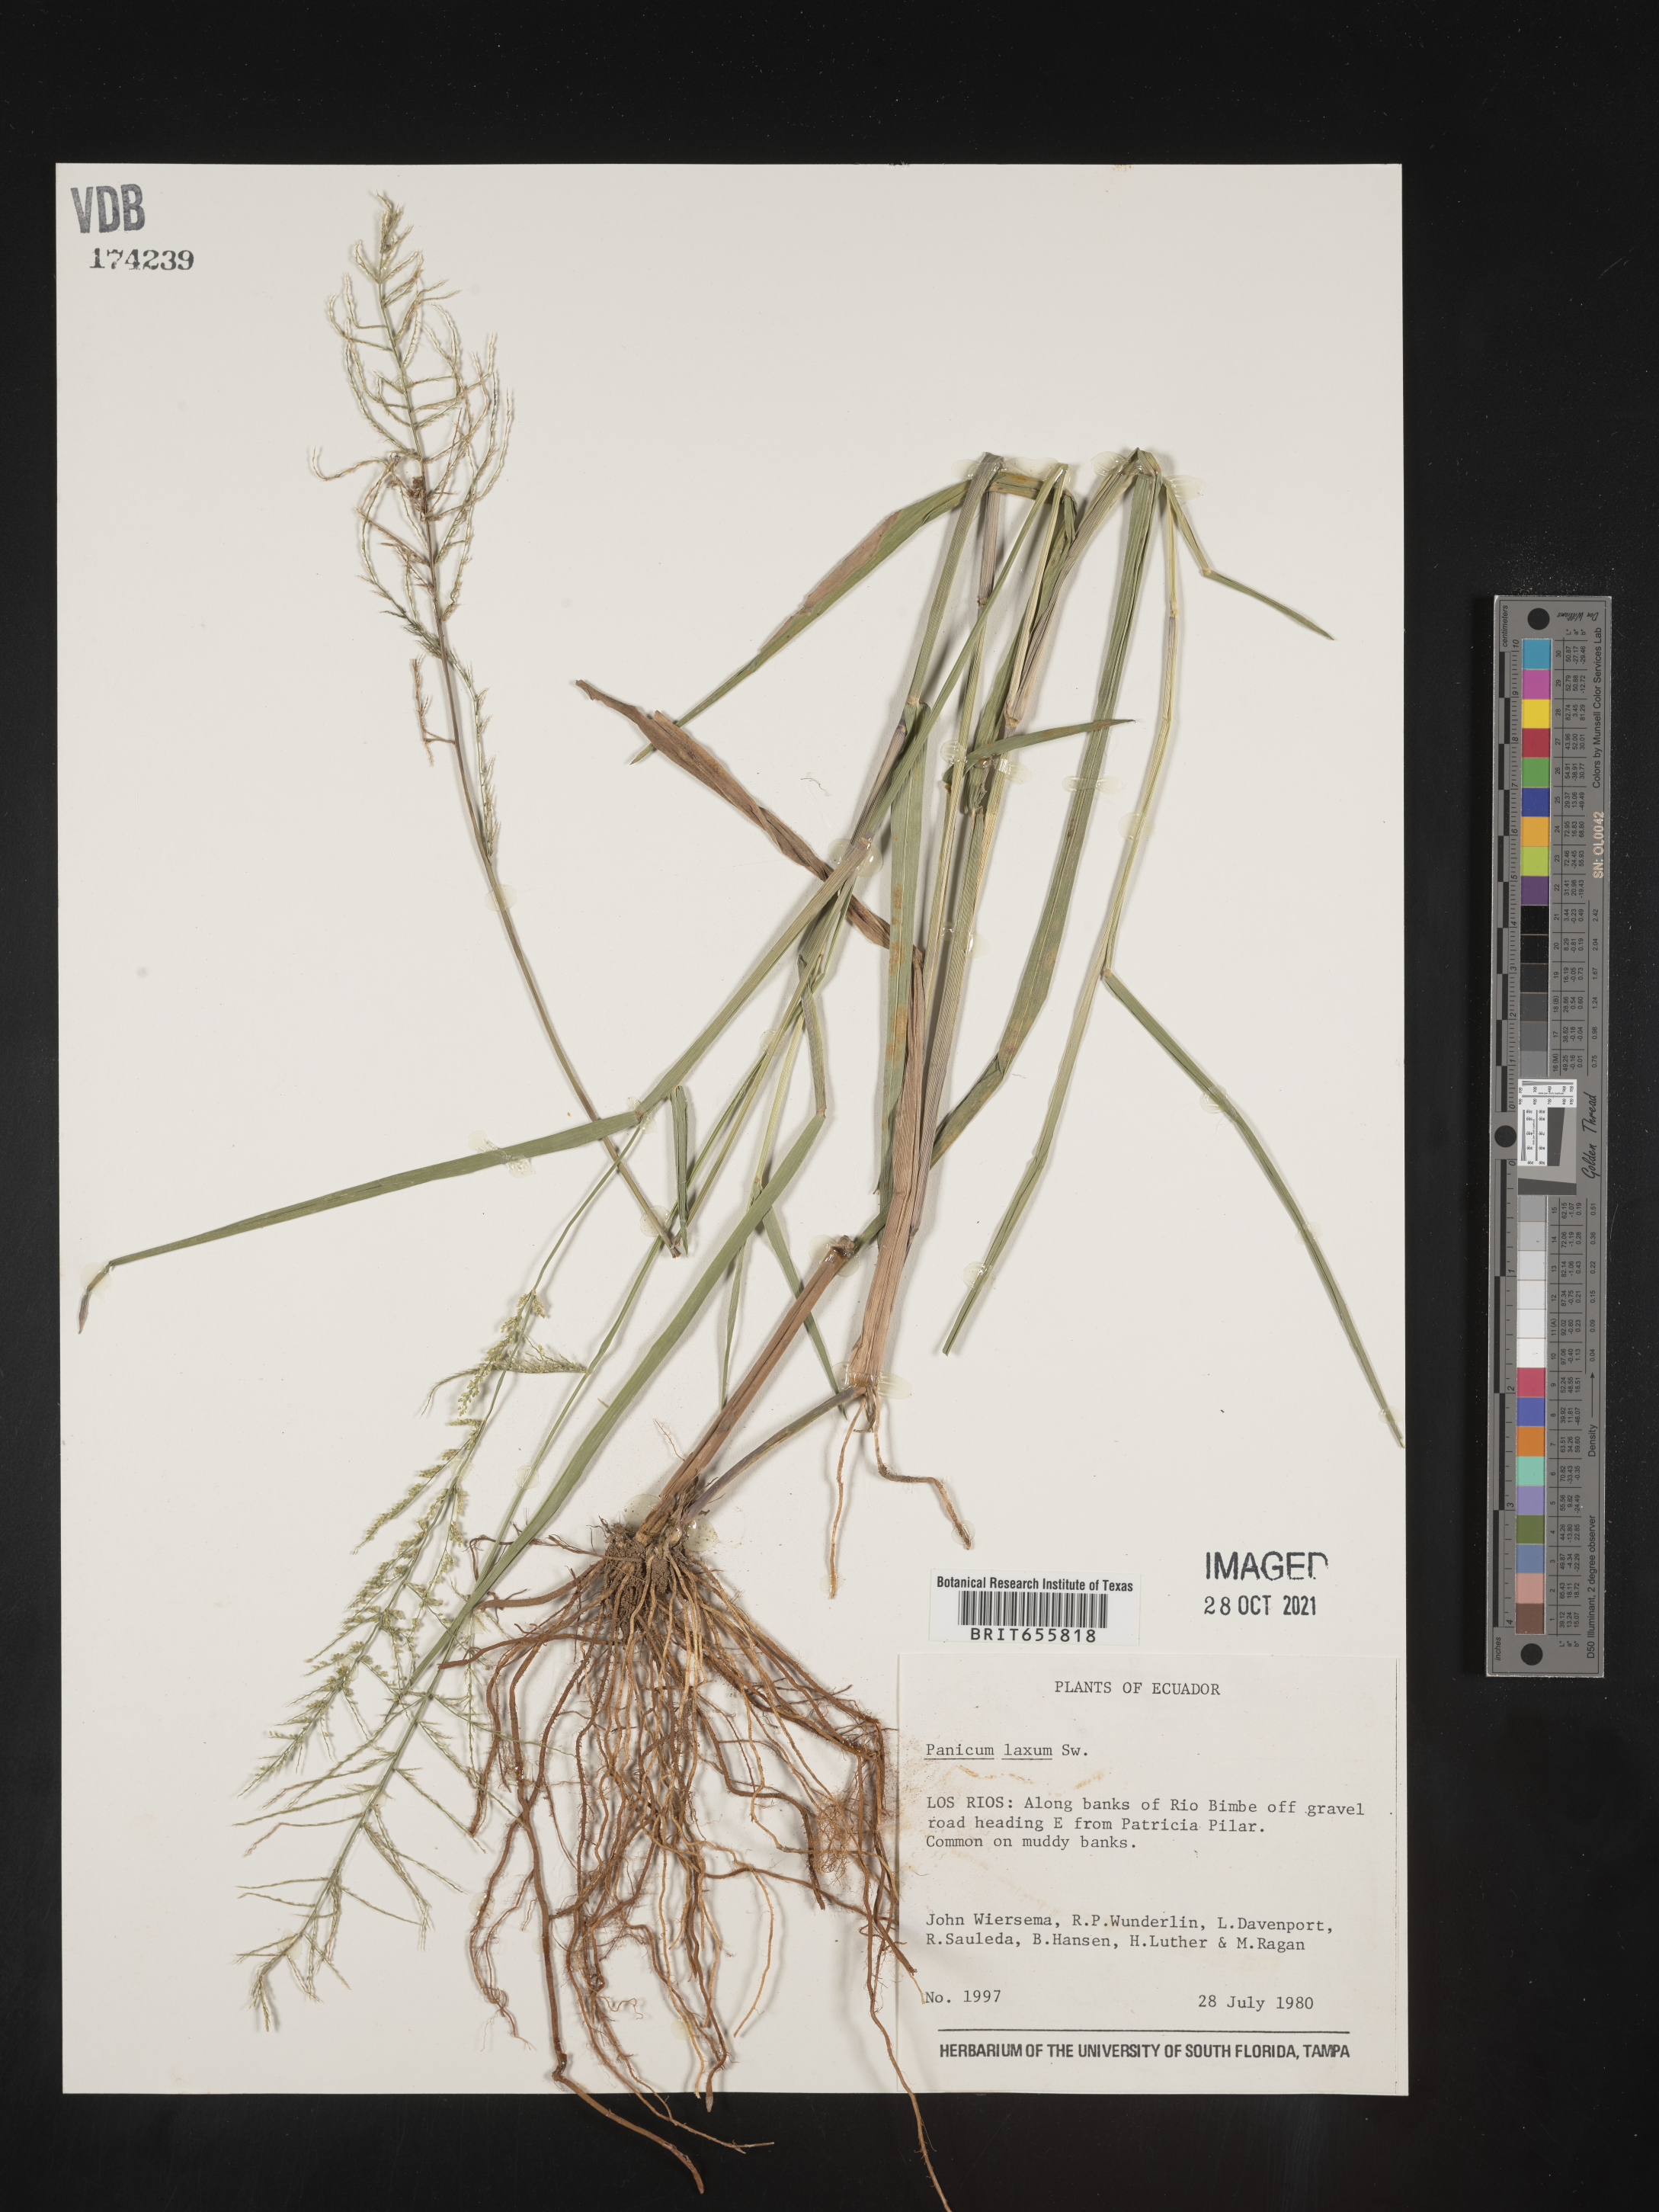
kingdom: Plantae
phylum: Tracheophyta
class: Liliopsida
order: Poales
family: Poaceae
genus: Panicum
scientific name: Panicum
